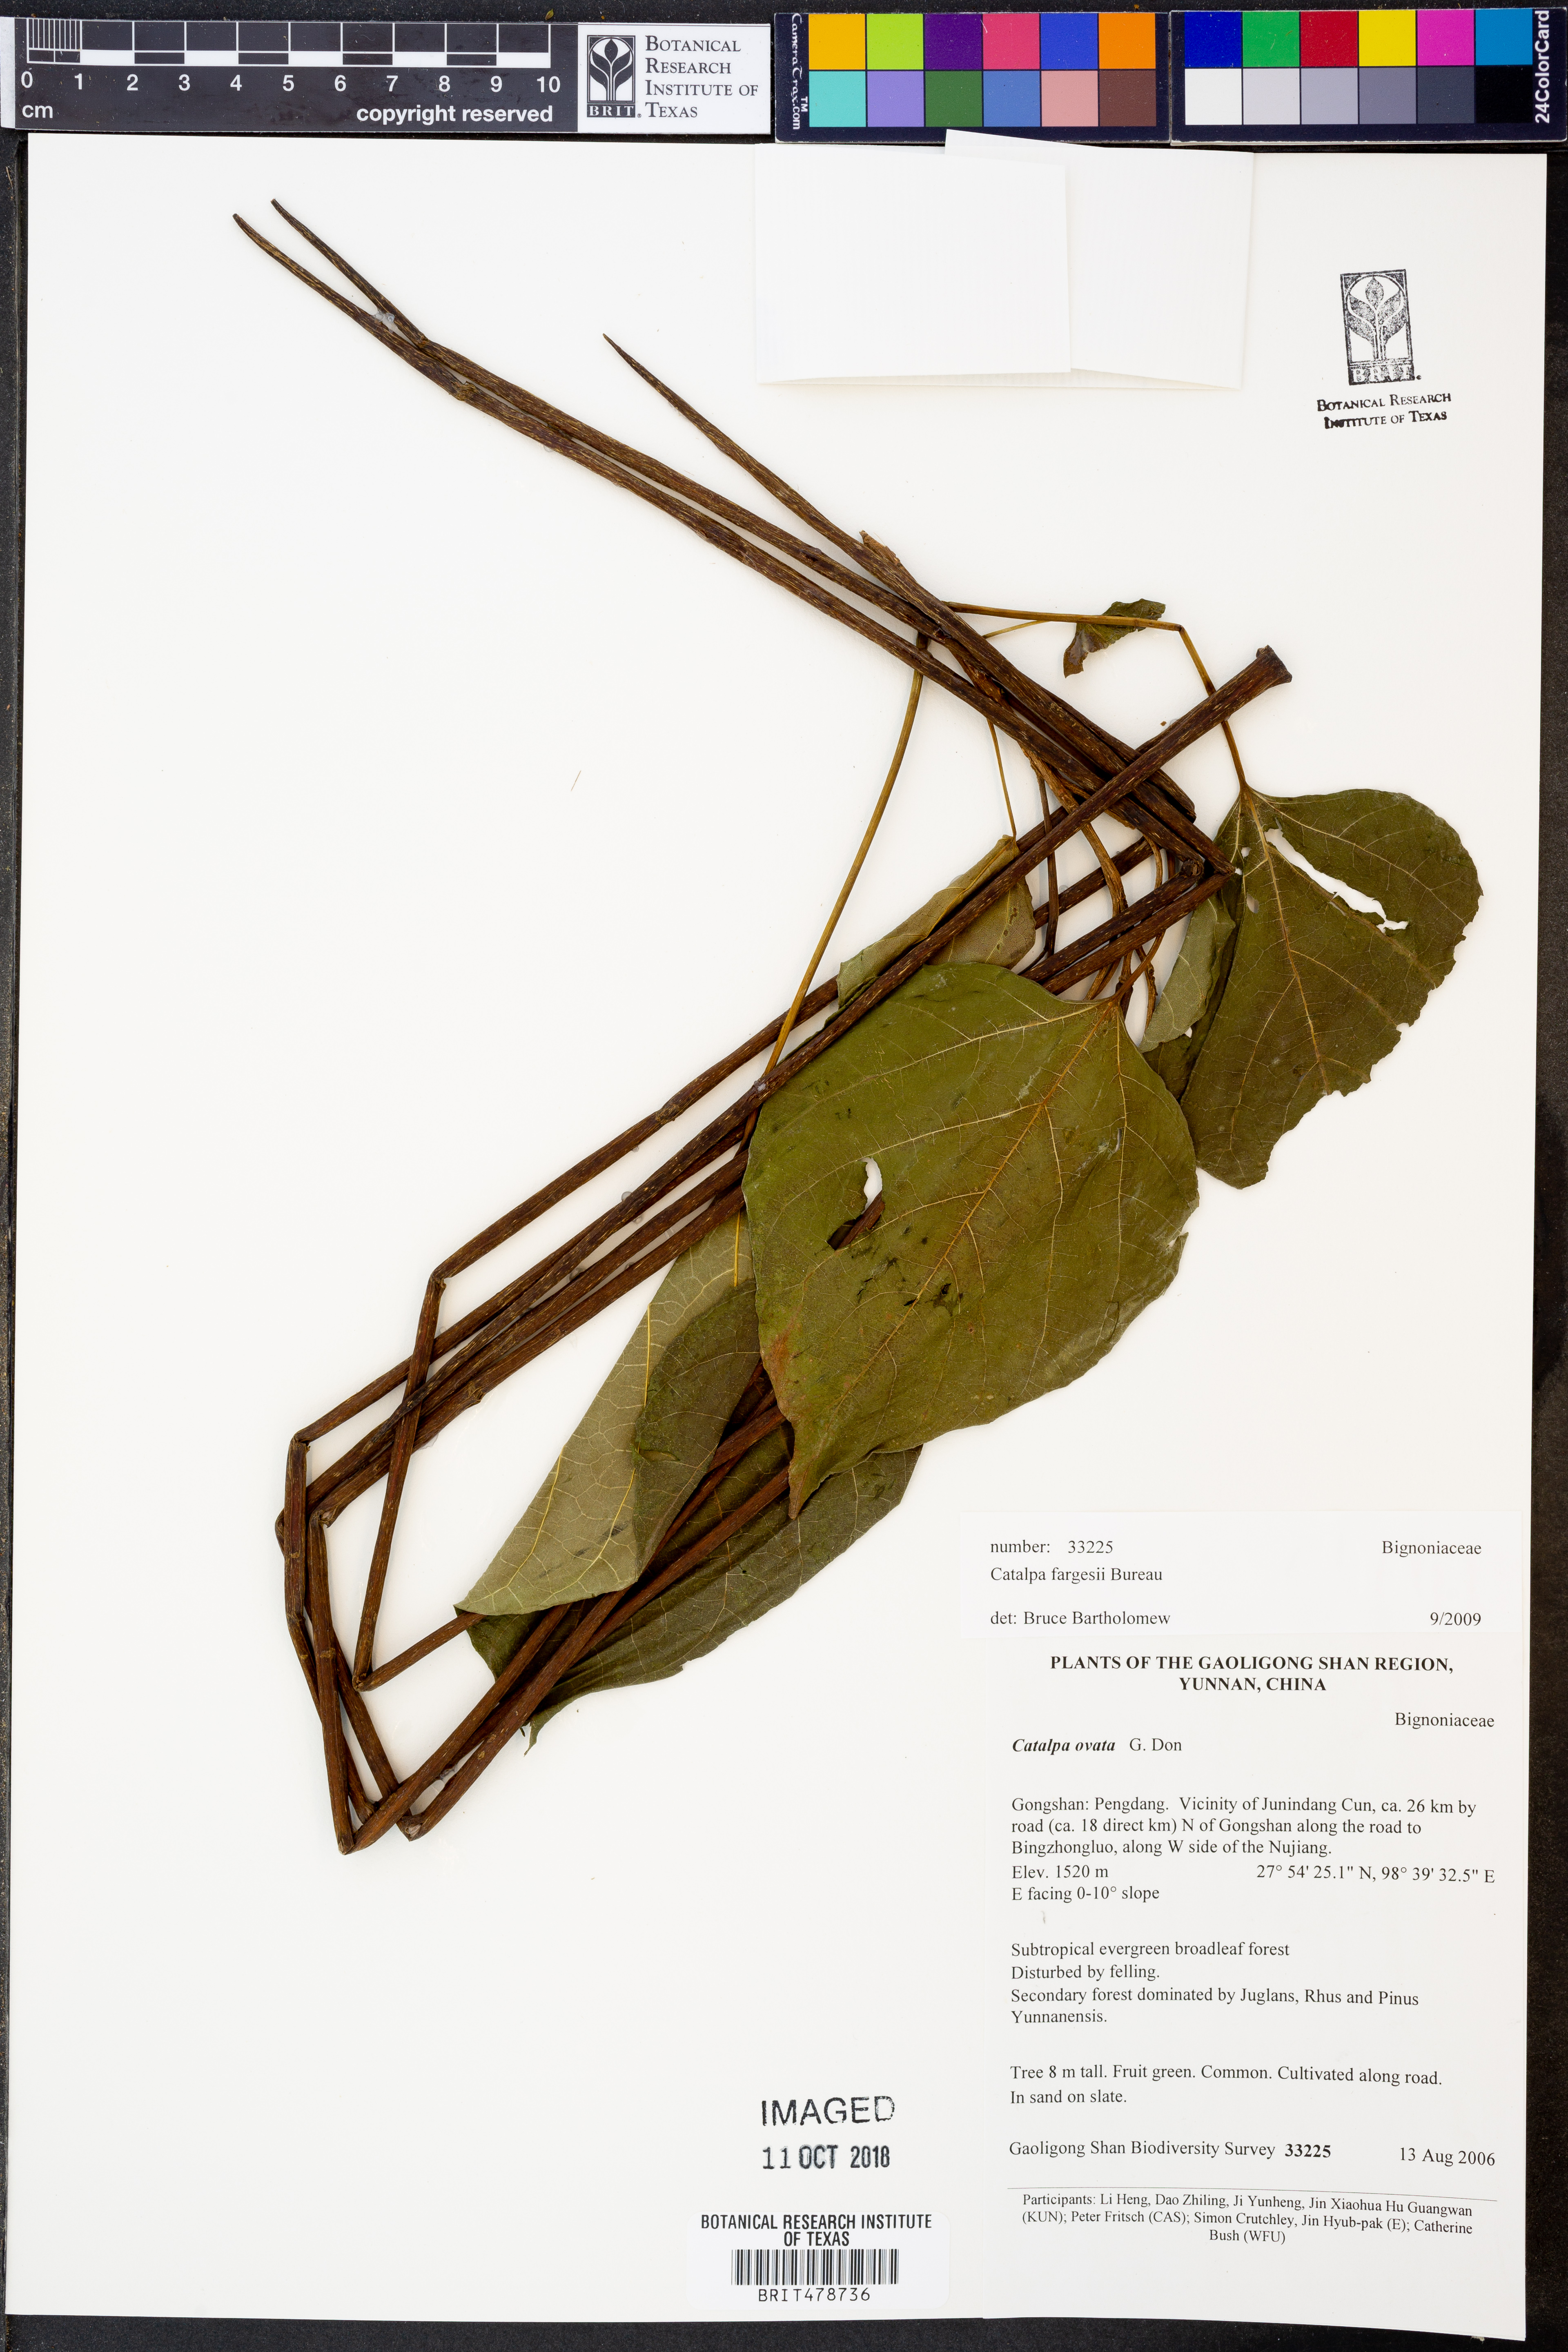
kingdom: Plantae
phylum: Tracheophyta
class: Magnoliopsida
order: Lamiales
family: Bignoniaceae
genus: Catalpa
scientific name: Catalpa fargesii
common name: Farges's catalpa
